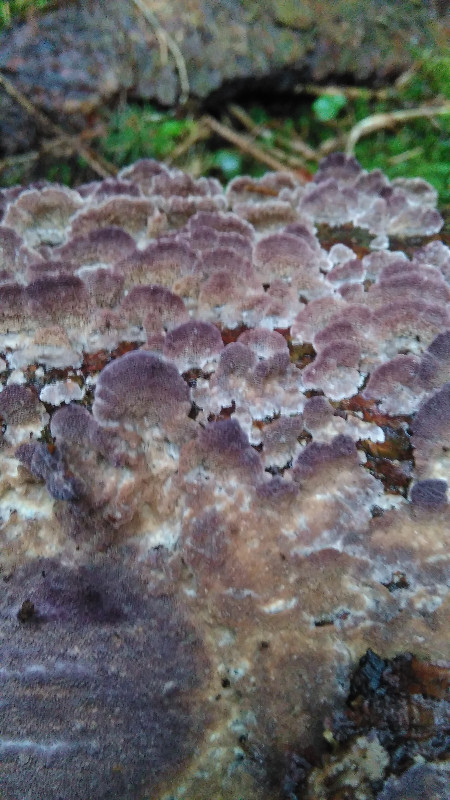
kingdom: Fungi
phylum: Basidiomycota
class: Agaricomycetes
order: Hymenochaetales
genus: Trichaptum
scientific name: Trichaptum abietinum
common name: almindelig violporesvamp
